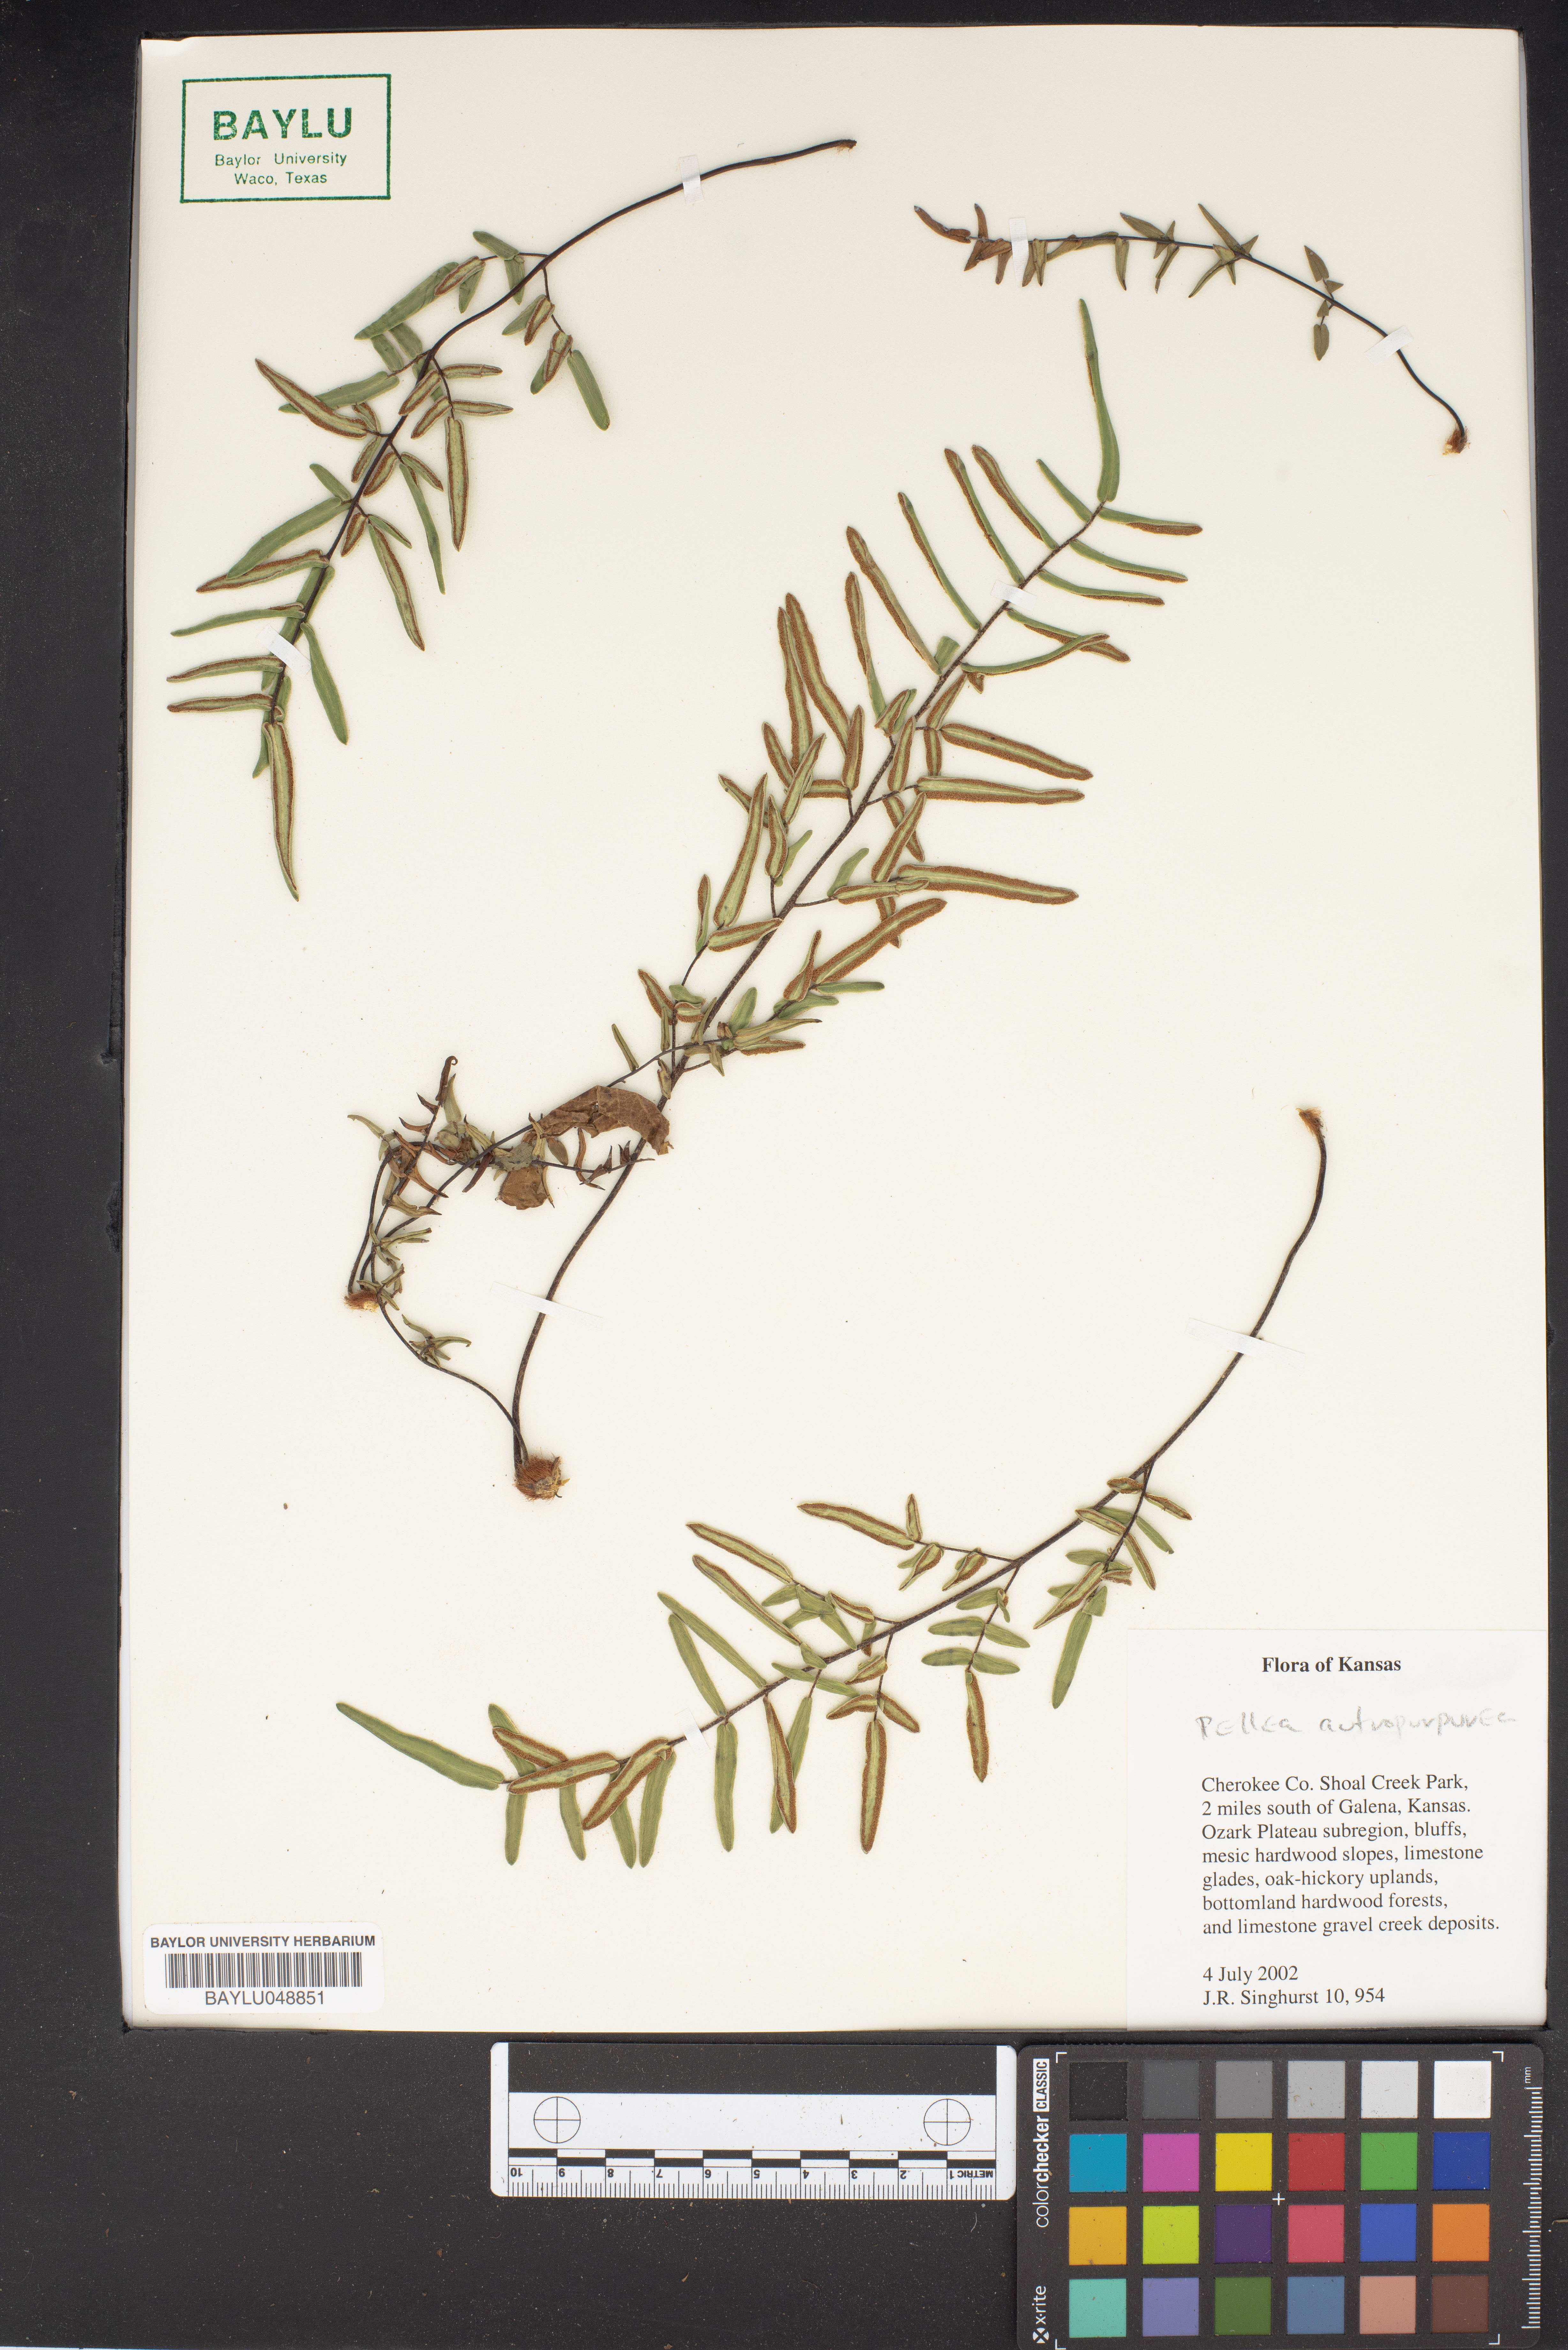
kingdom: Plantae
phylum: Tracheophyta
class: Polypodiopsida
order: Polypodiales
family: Pteridaceae
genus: Pellaea
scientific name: Pellaea atropurpurea
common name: Hairy cliffbrake
